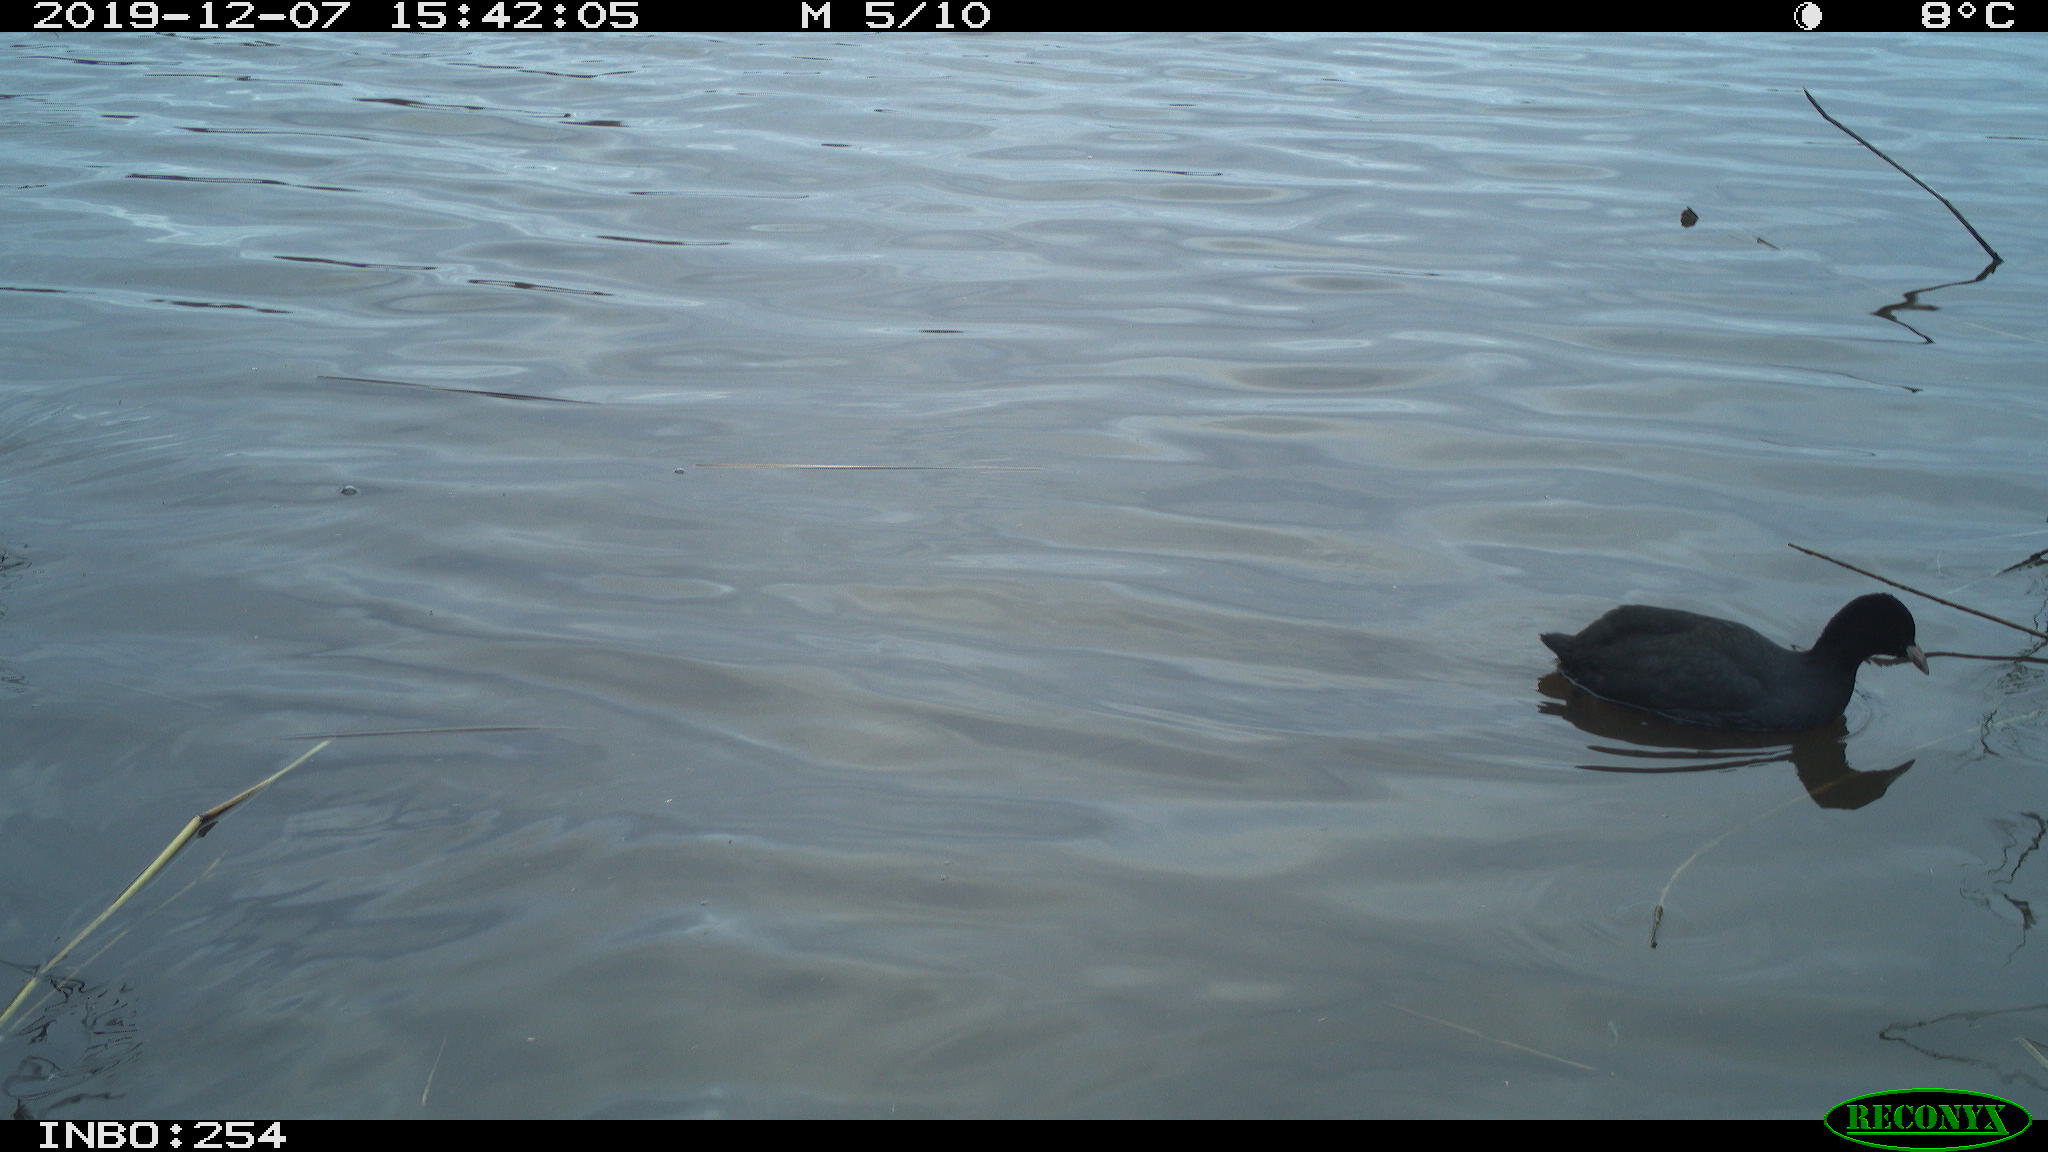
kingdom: Animalia
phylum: Chordata
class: Aves
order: Gruiformes
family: Rallidae
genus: Fulica
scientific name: Fulica atra
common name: Eurasian coot
